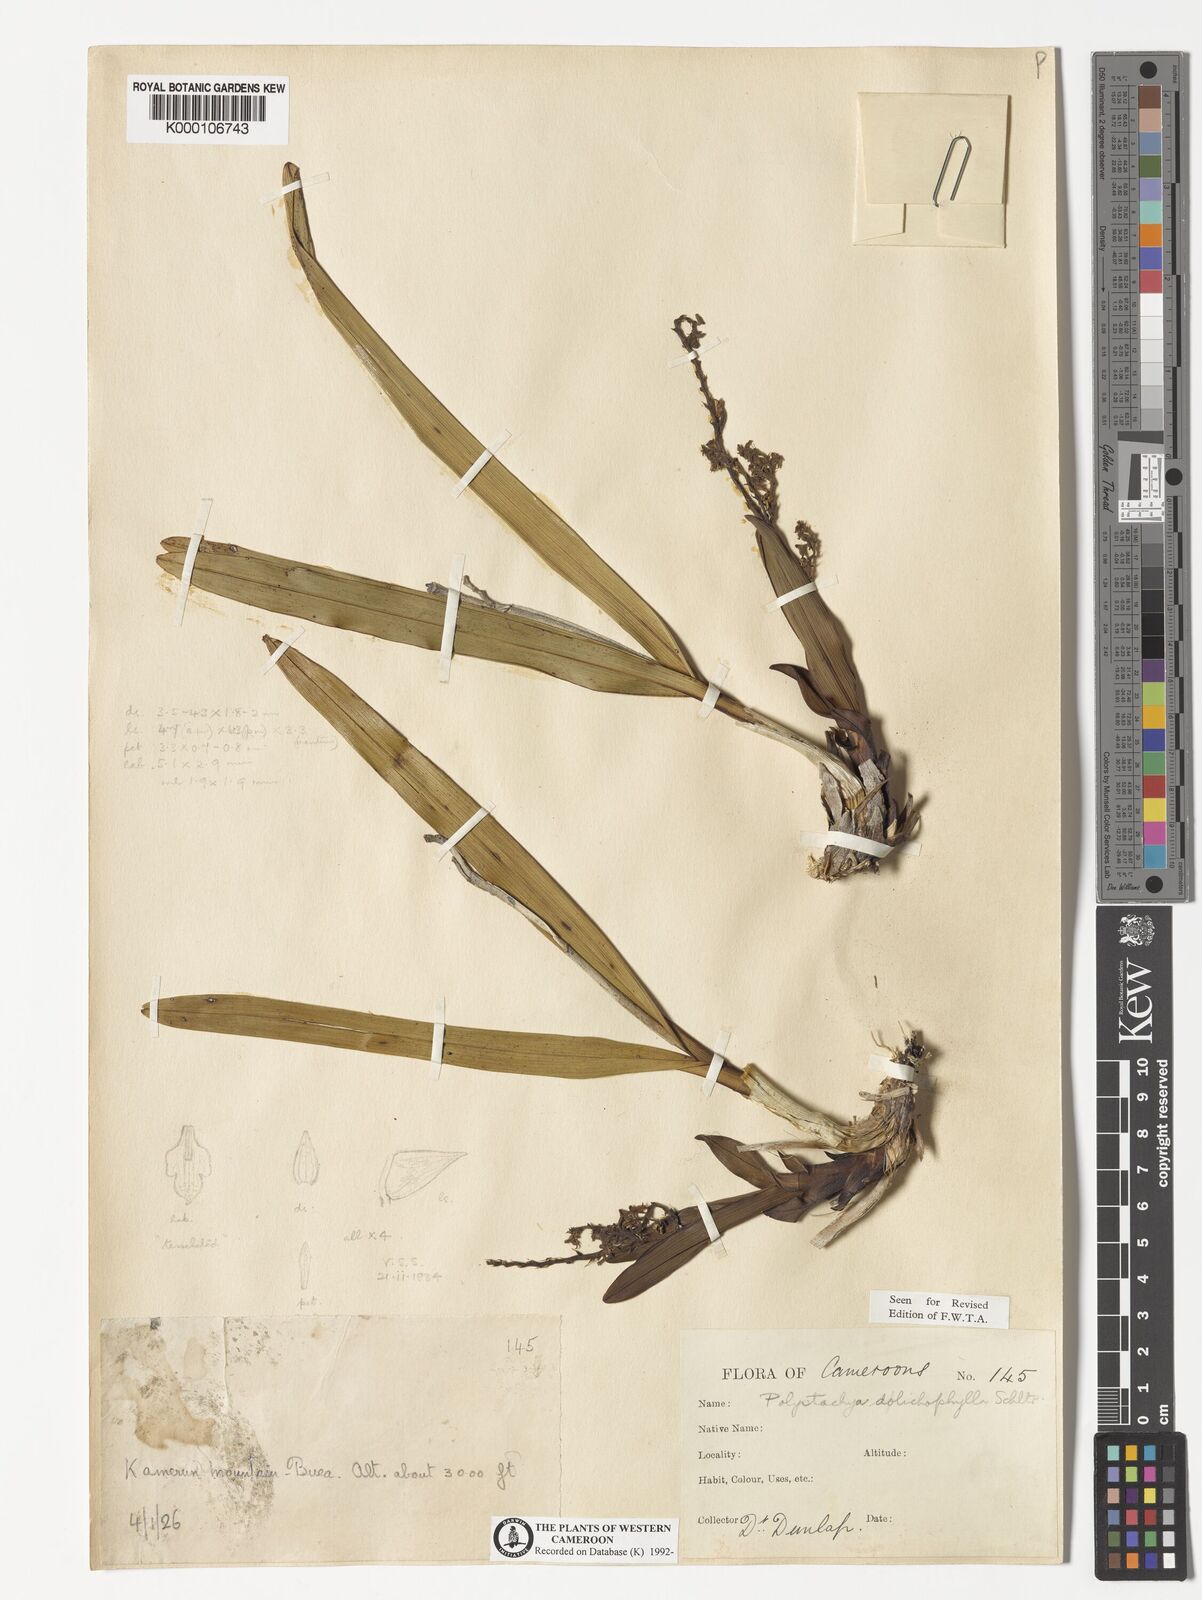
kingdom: Plantae
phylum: Tracheophyta
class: Liliopsida
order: Asparagales
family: Orchidaceae
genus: Polystachya
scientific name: Polystachya dolichophylla
